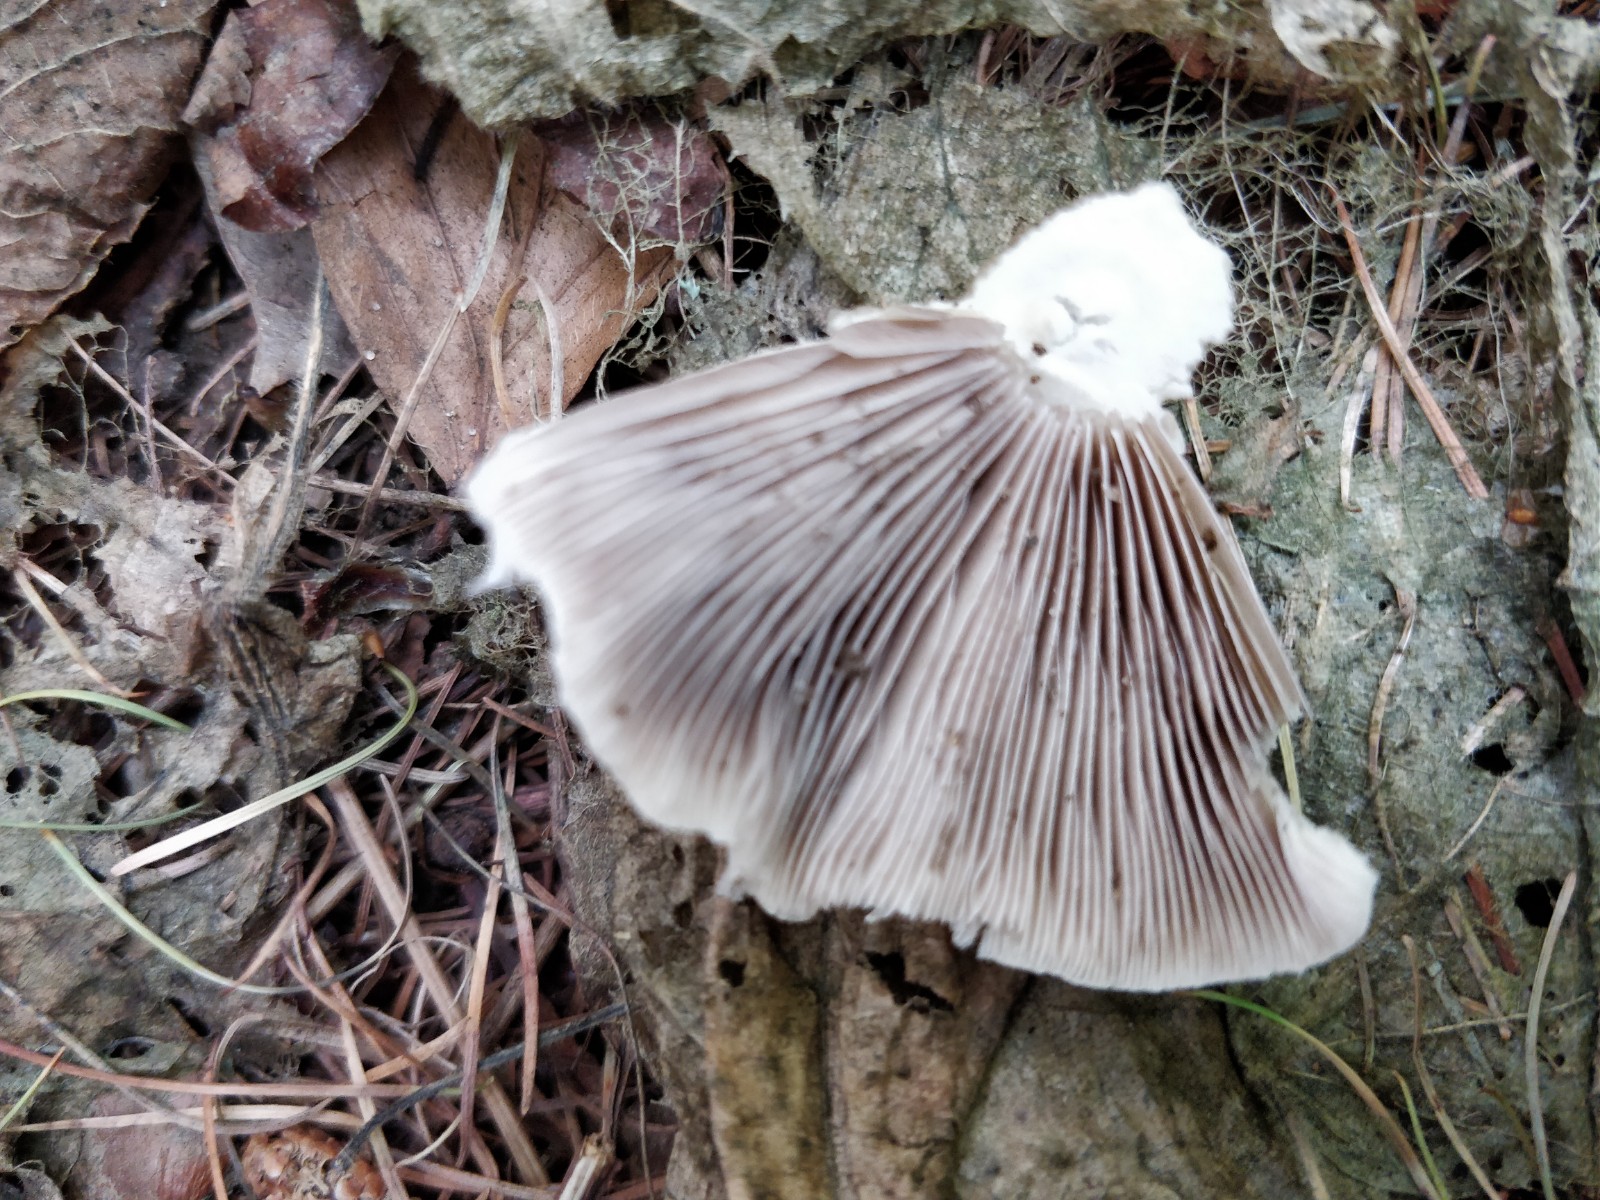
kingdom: Fungi
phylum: Basidiomycota
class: Agaricomycetes
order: Agaricales
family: Psathyrellaceae
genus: Candolleomyces
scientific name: Candolleomyces candolleanus
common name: Candolles mørkhat
